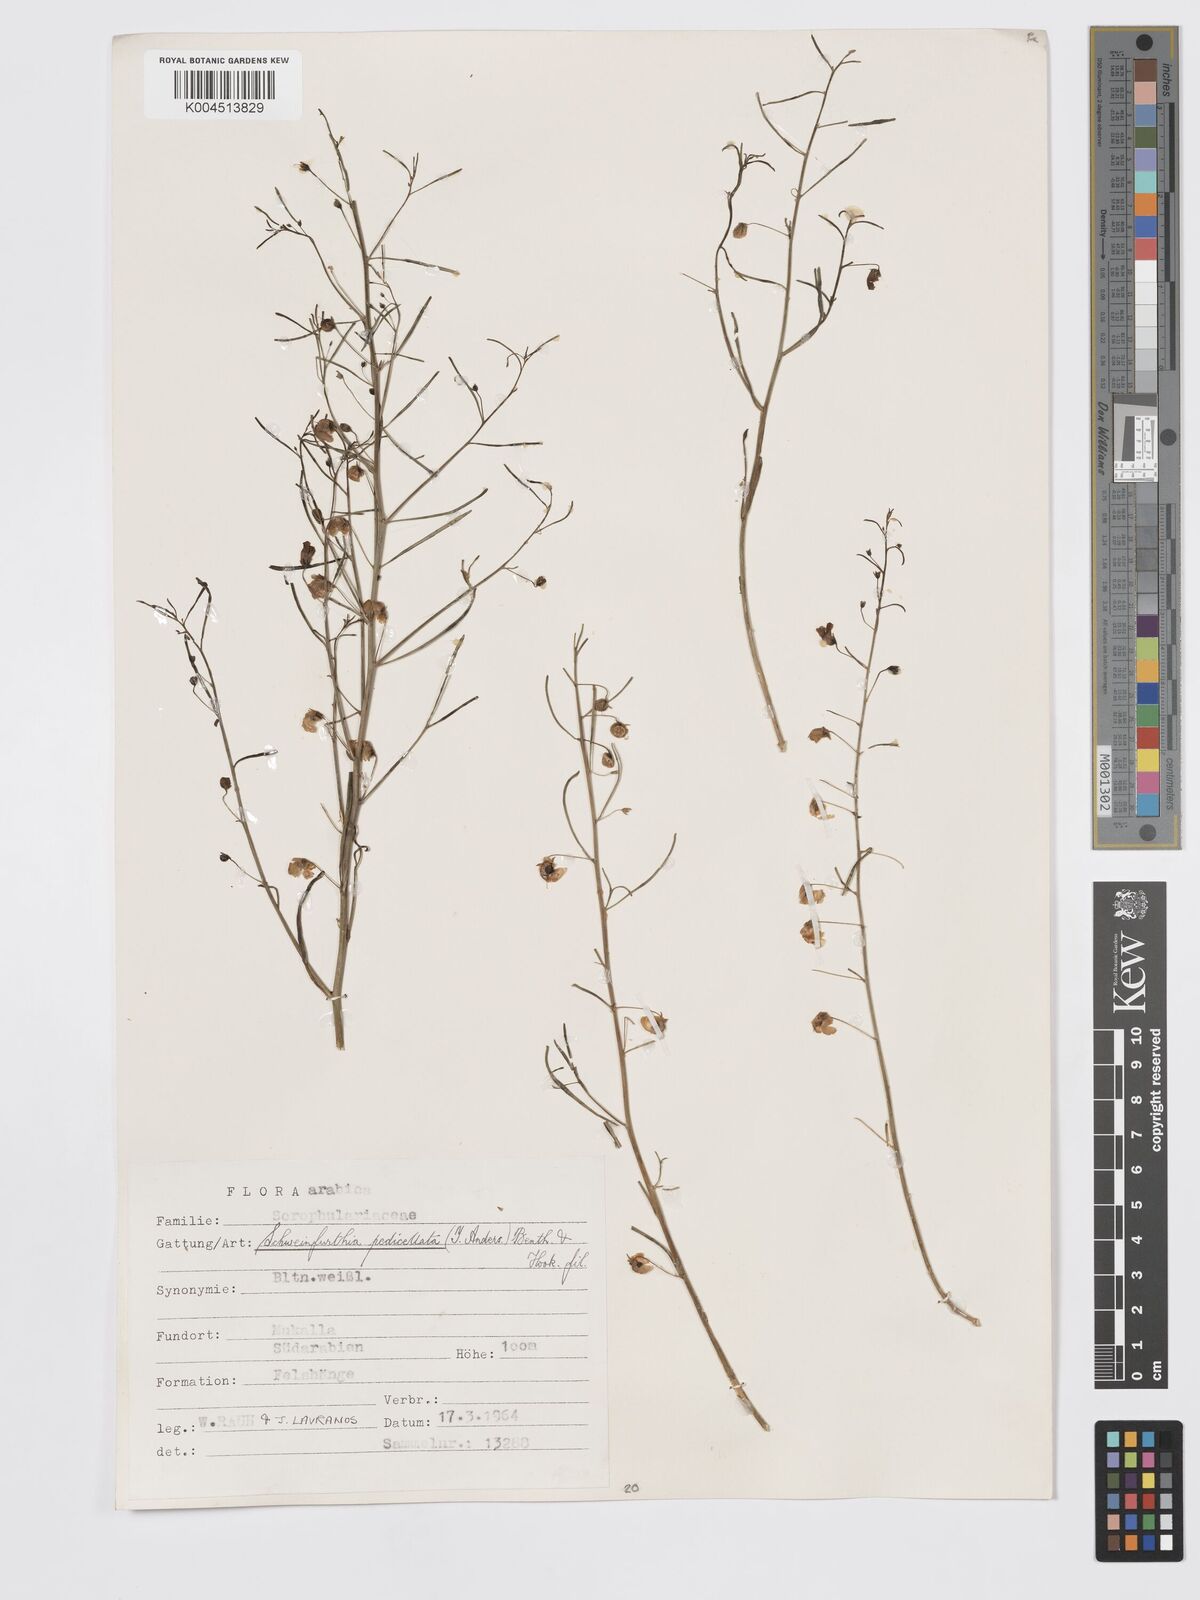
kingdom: Plantae
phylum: Tracheophyta
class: Magnoliopsida
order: Lamiales
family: Plantaginaceae
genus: Schweinfurthia
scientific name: Schweinfurthia pedicellata
